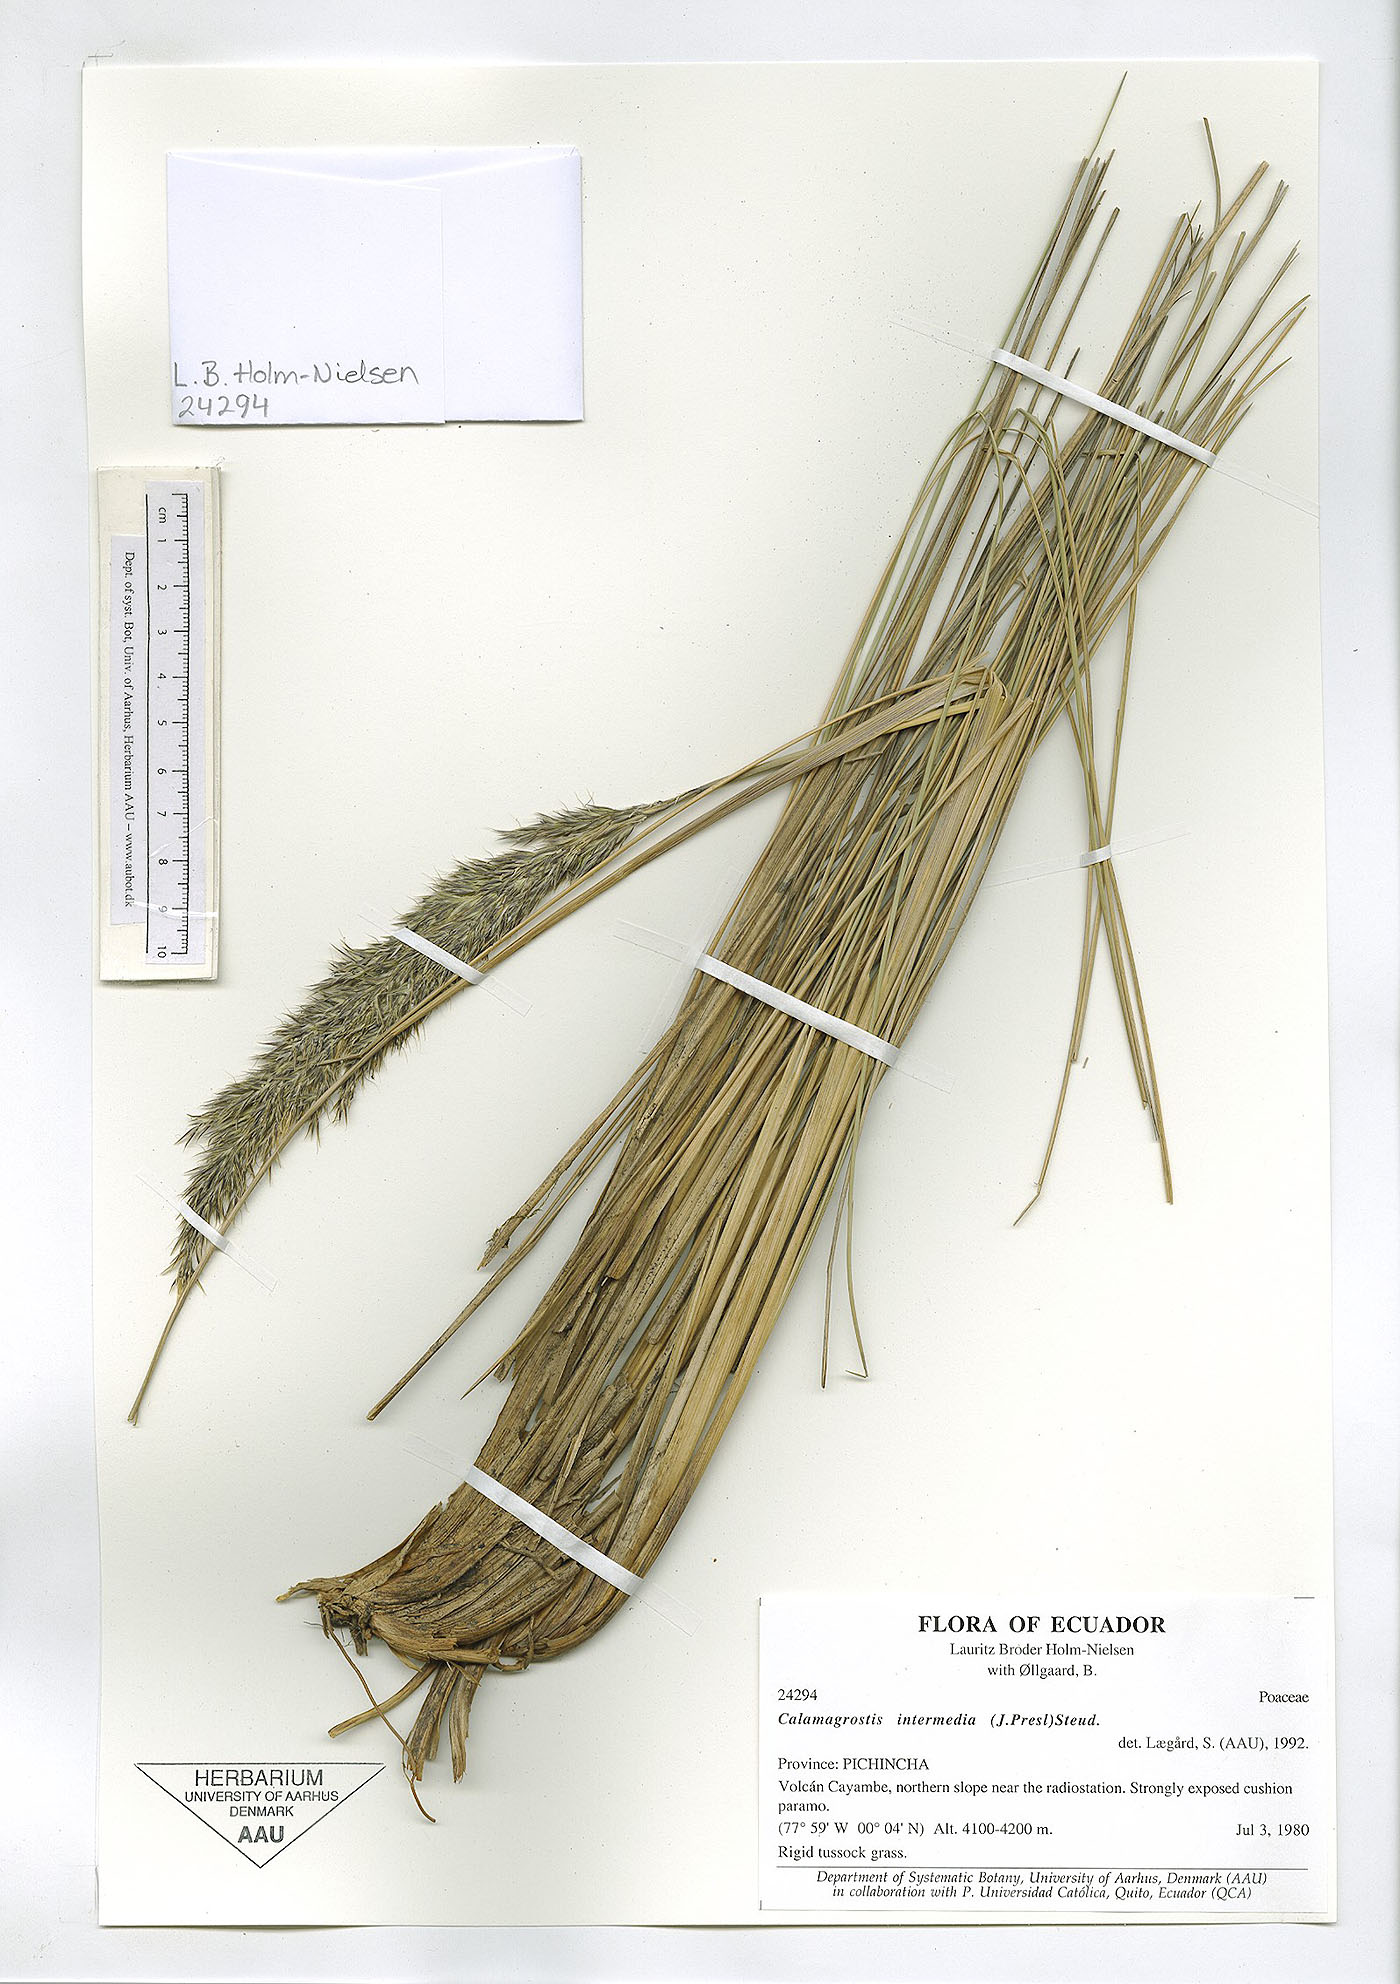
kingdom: Plantae
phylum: Tracheophyta
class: Liliopsida
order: Poales
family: Poaceae
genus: Cinnagrostis
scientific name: Cinnagrostis recta
